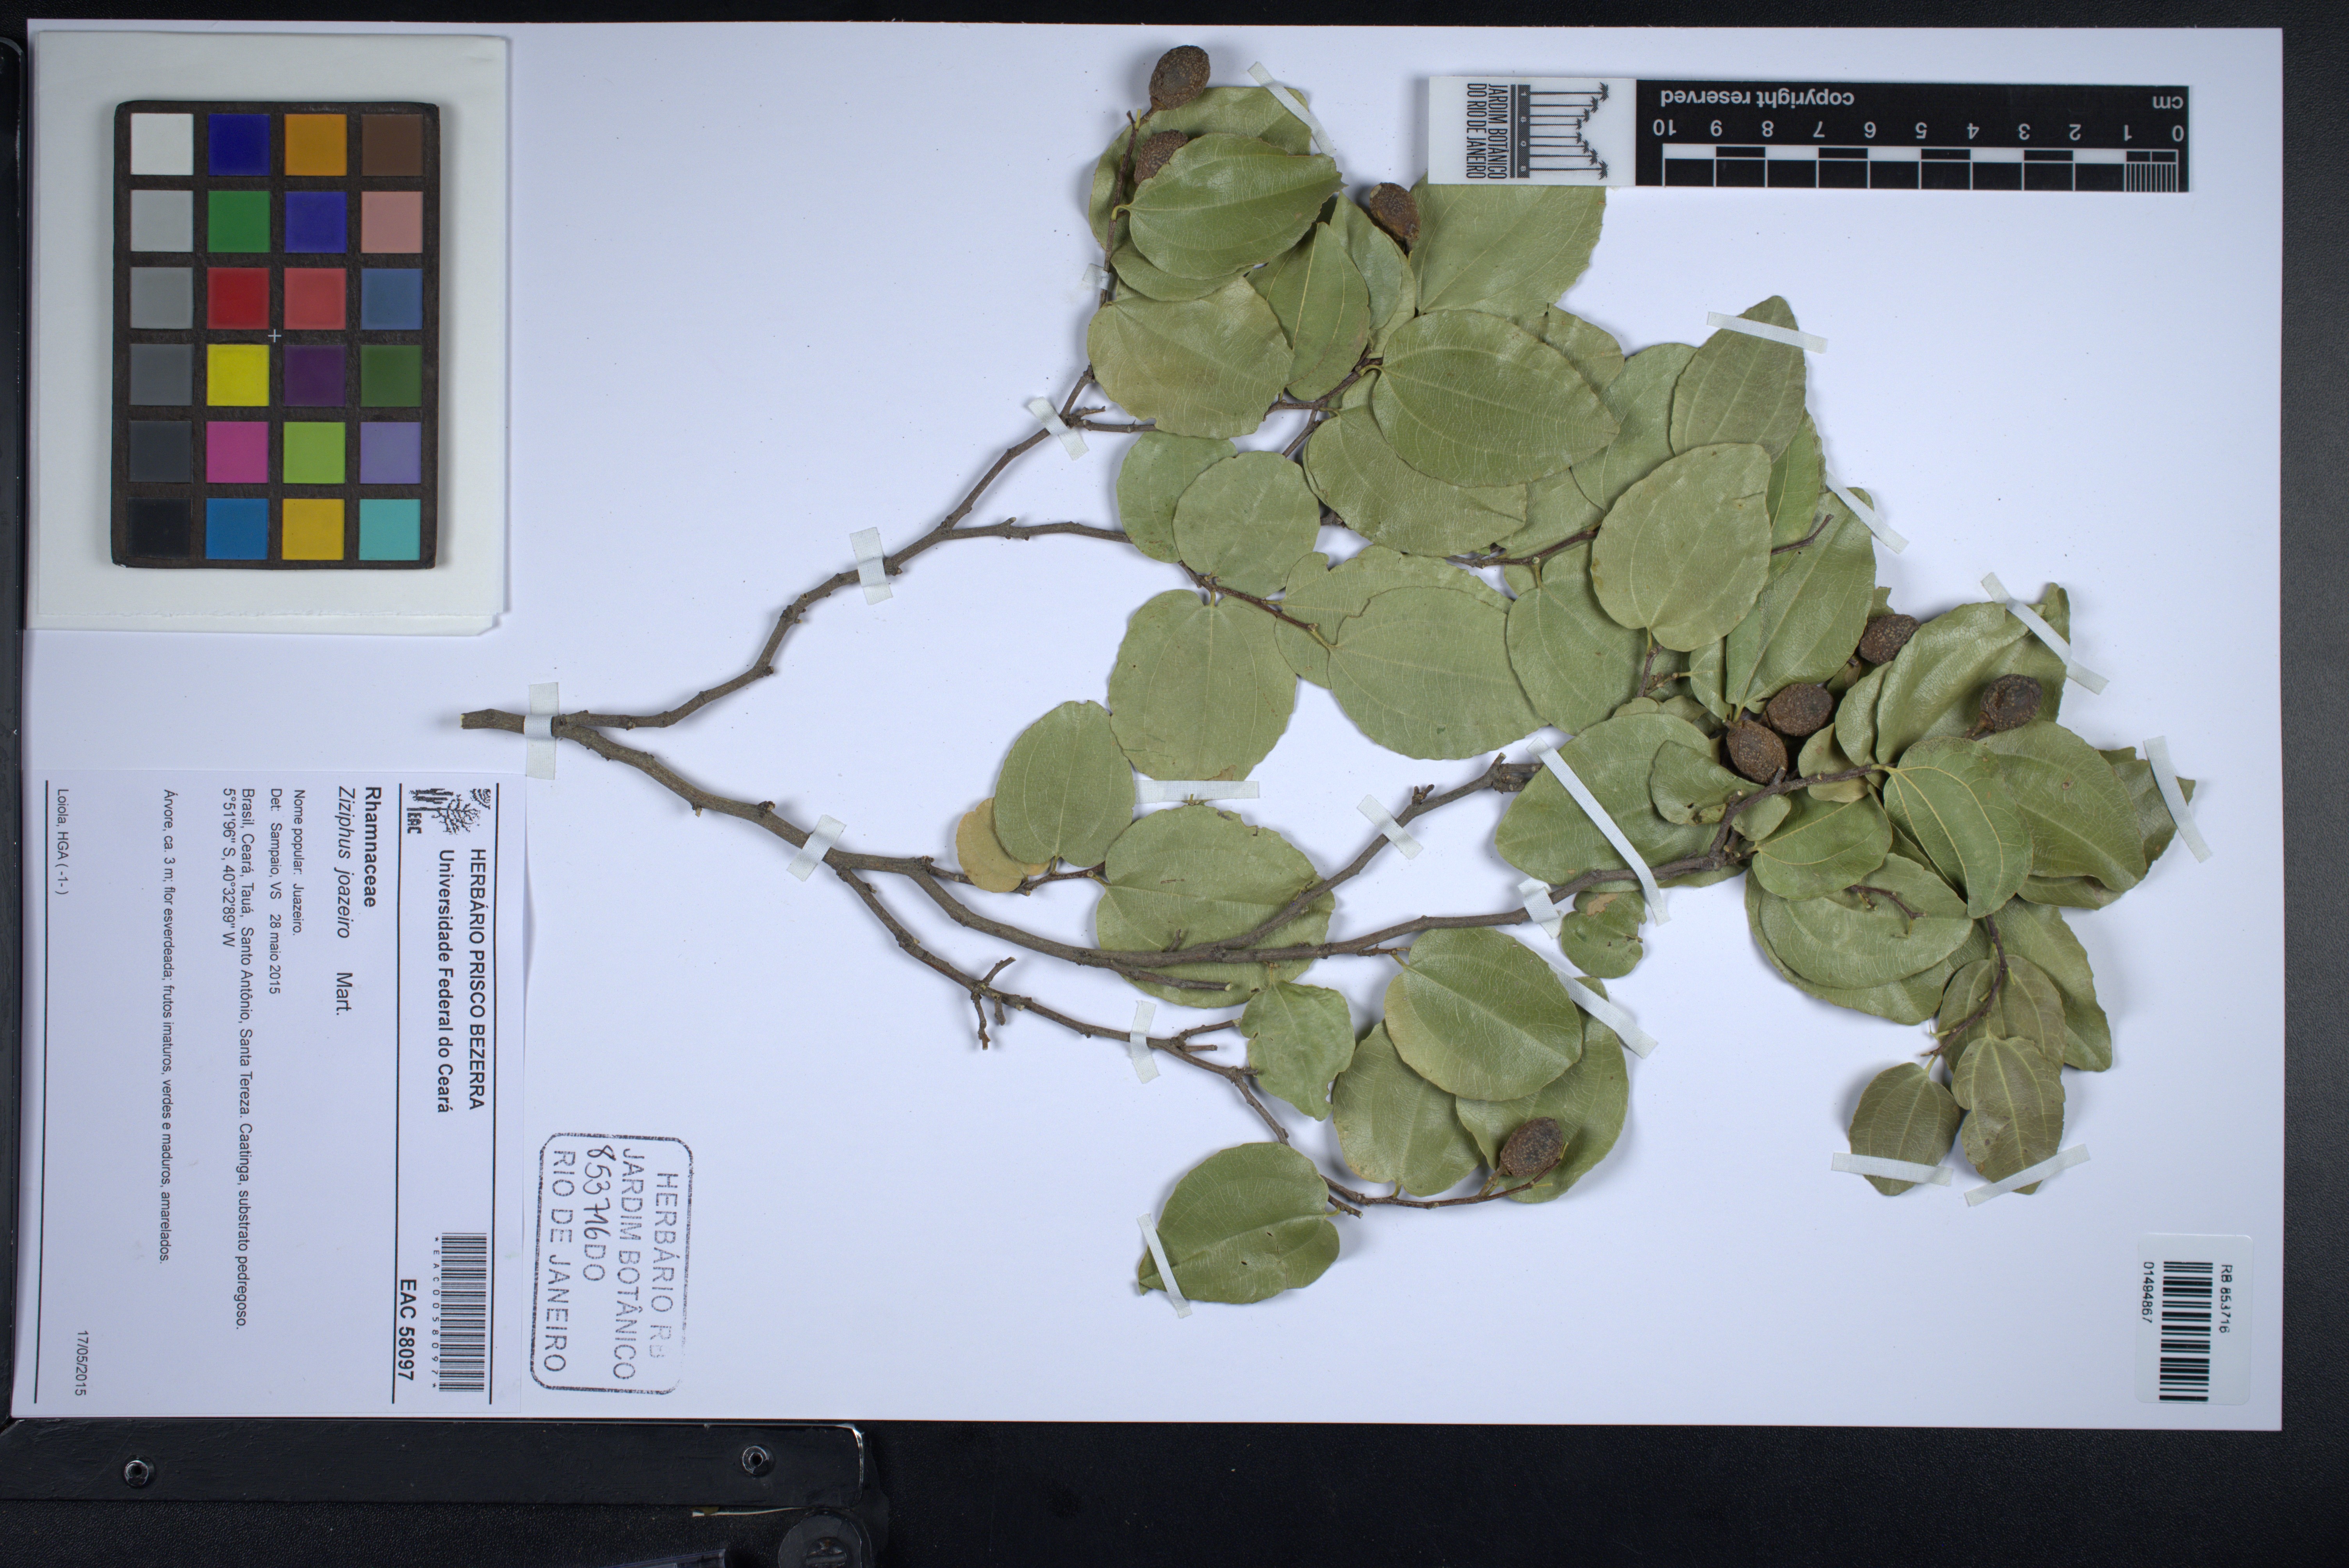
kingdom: Plantae
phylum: Tracheophyta
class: Magnoliopsida
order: Rosales
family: Rhamnaceae
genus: Sarcomphalus
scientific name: Sarcomphalus joazeiro
